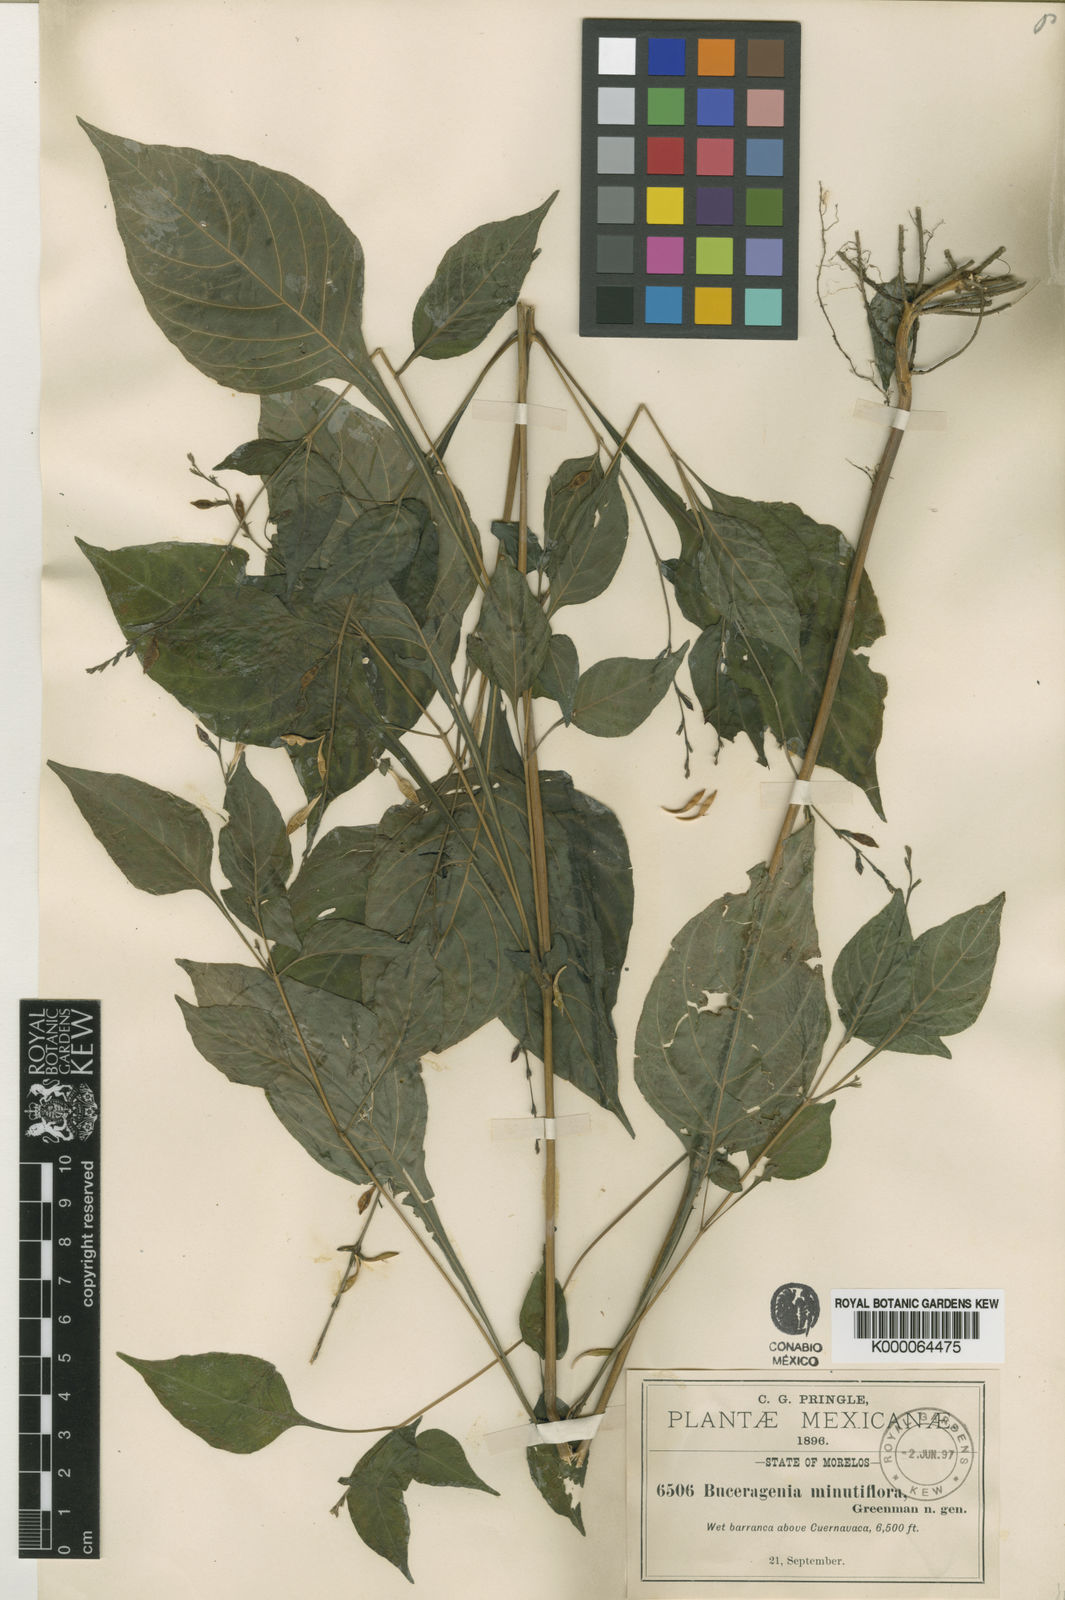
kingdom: Plantae
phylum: Tracheophyta
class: Magnoliopsida
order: Lamiales
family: Acanthaceae
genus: Pseuderanthemum
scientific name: Pseuderanthemum
